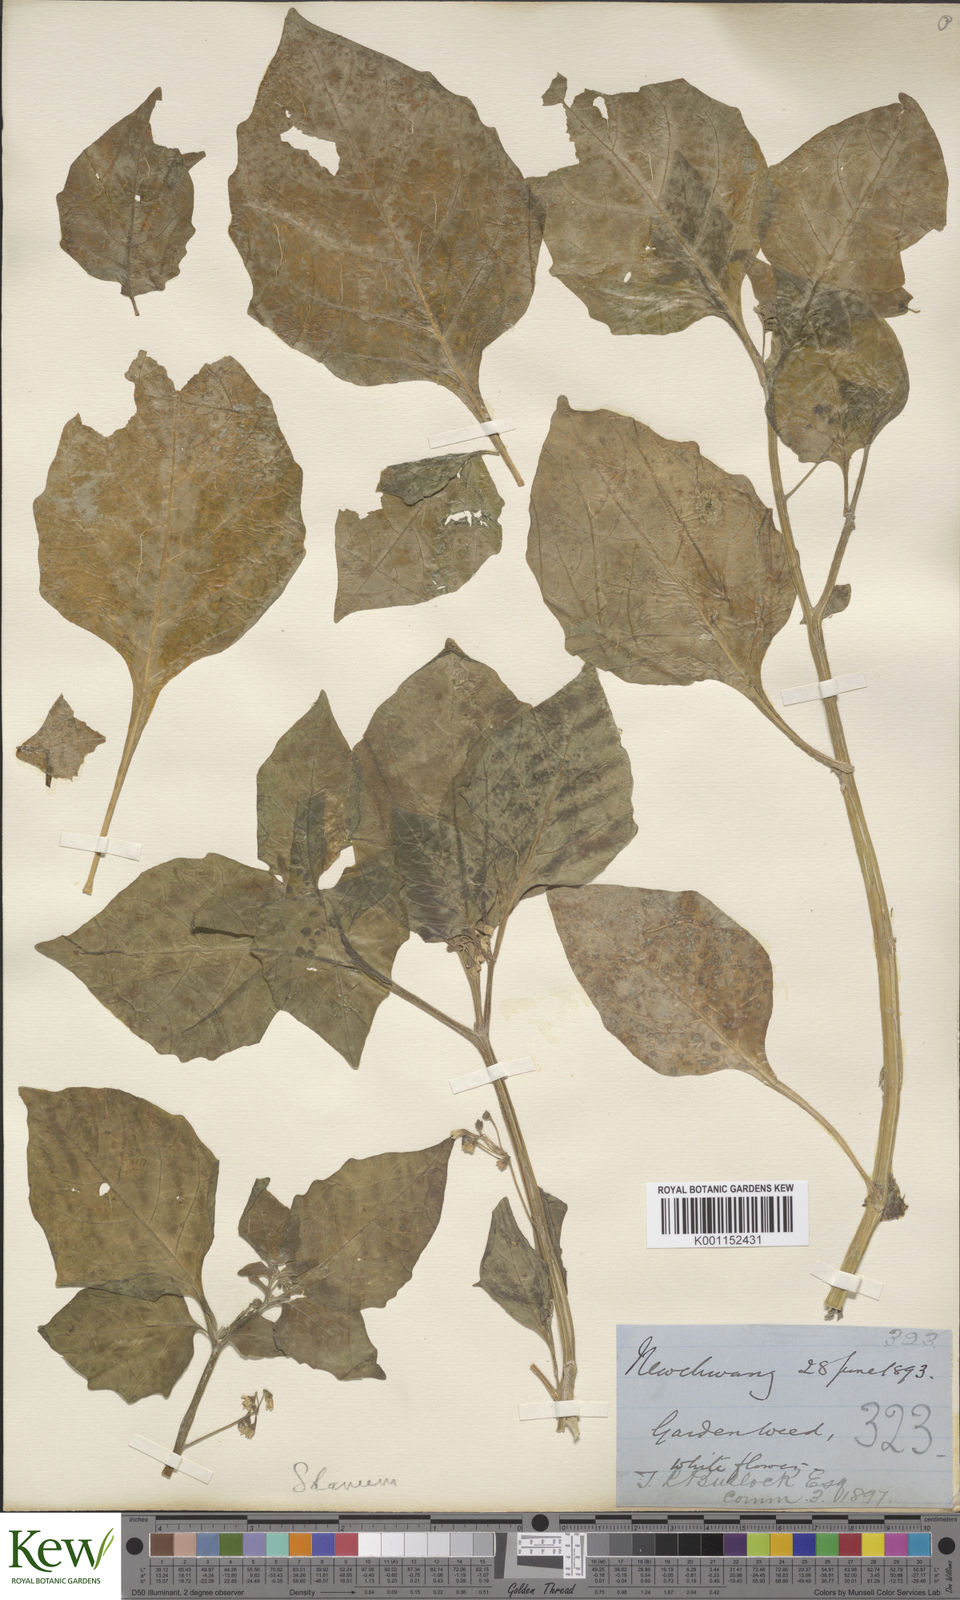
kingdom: Plantae
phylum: Tracheophyta
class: Magnoliopsida
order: Solanales
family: Solanaceae
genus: Solanum
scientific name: Solanum scabrum
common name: Garden-huckleberry
